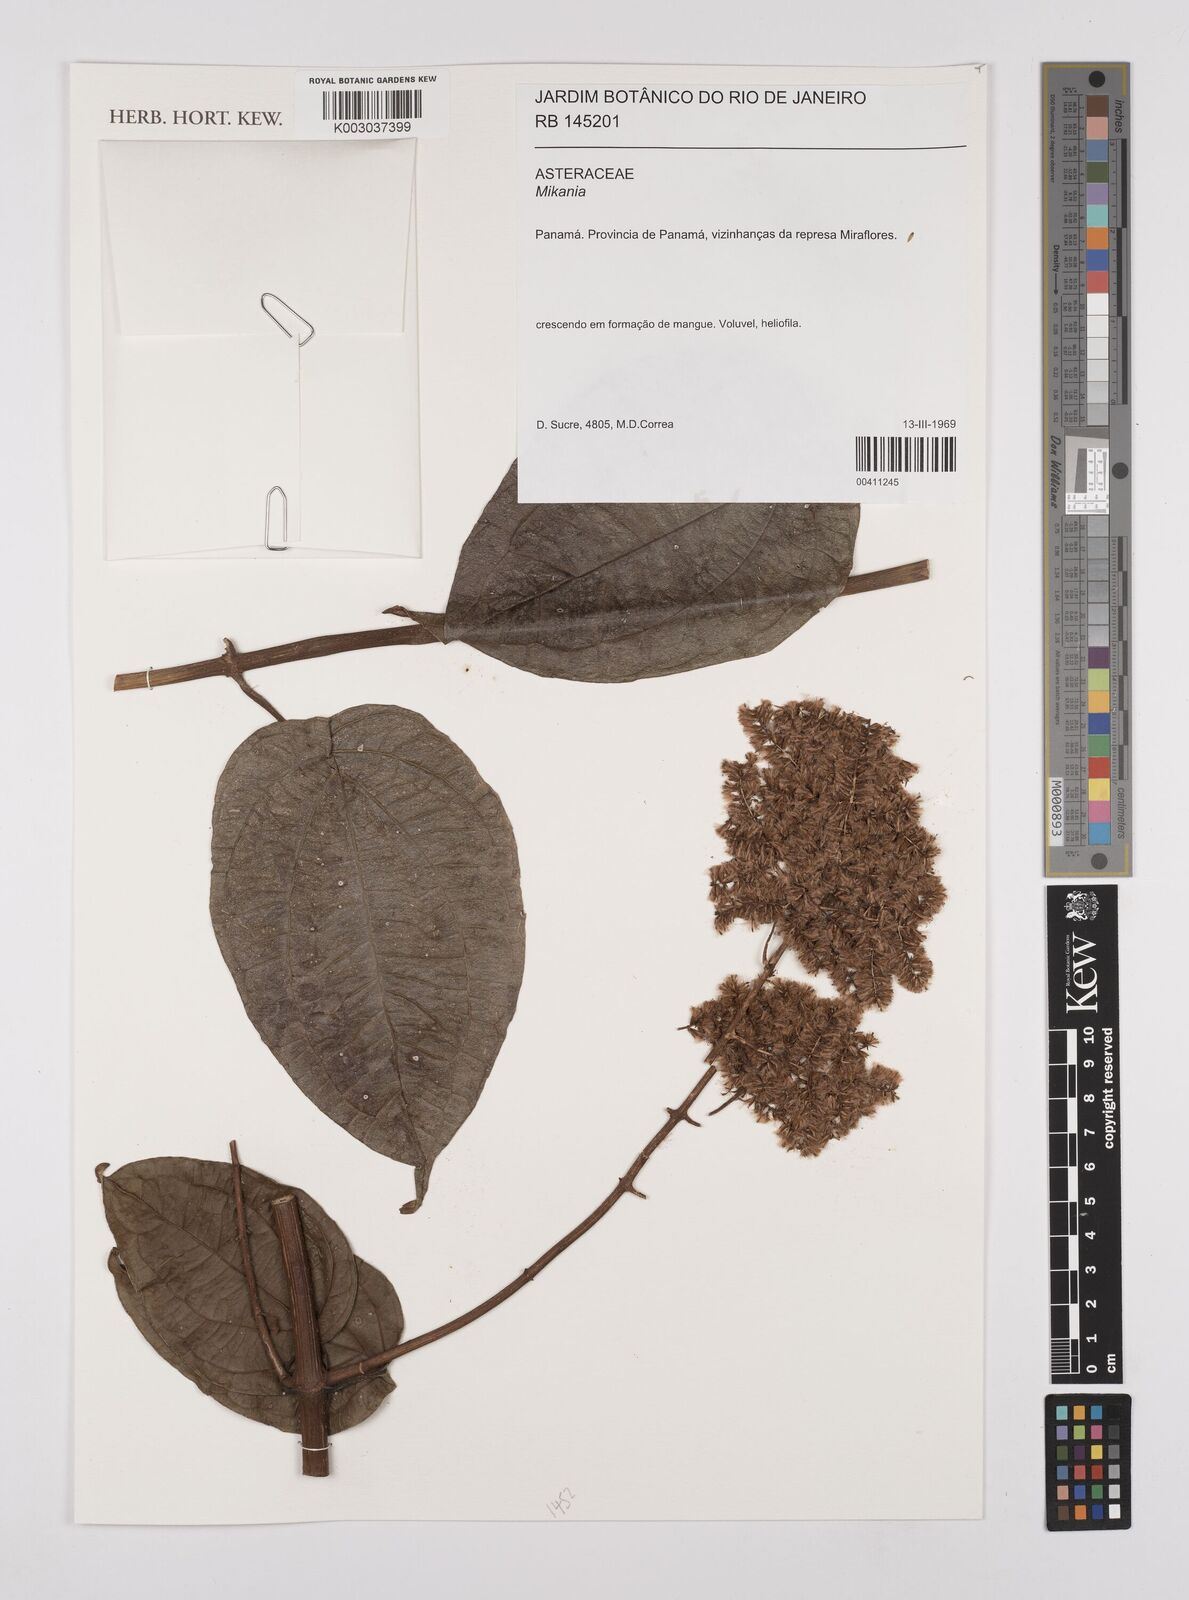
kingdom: Plantae
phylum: Tracheophyta
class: Magnoliopsida
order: Asterales
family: Asteraceae
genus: Mikania
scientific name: Mikania
